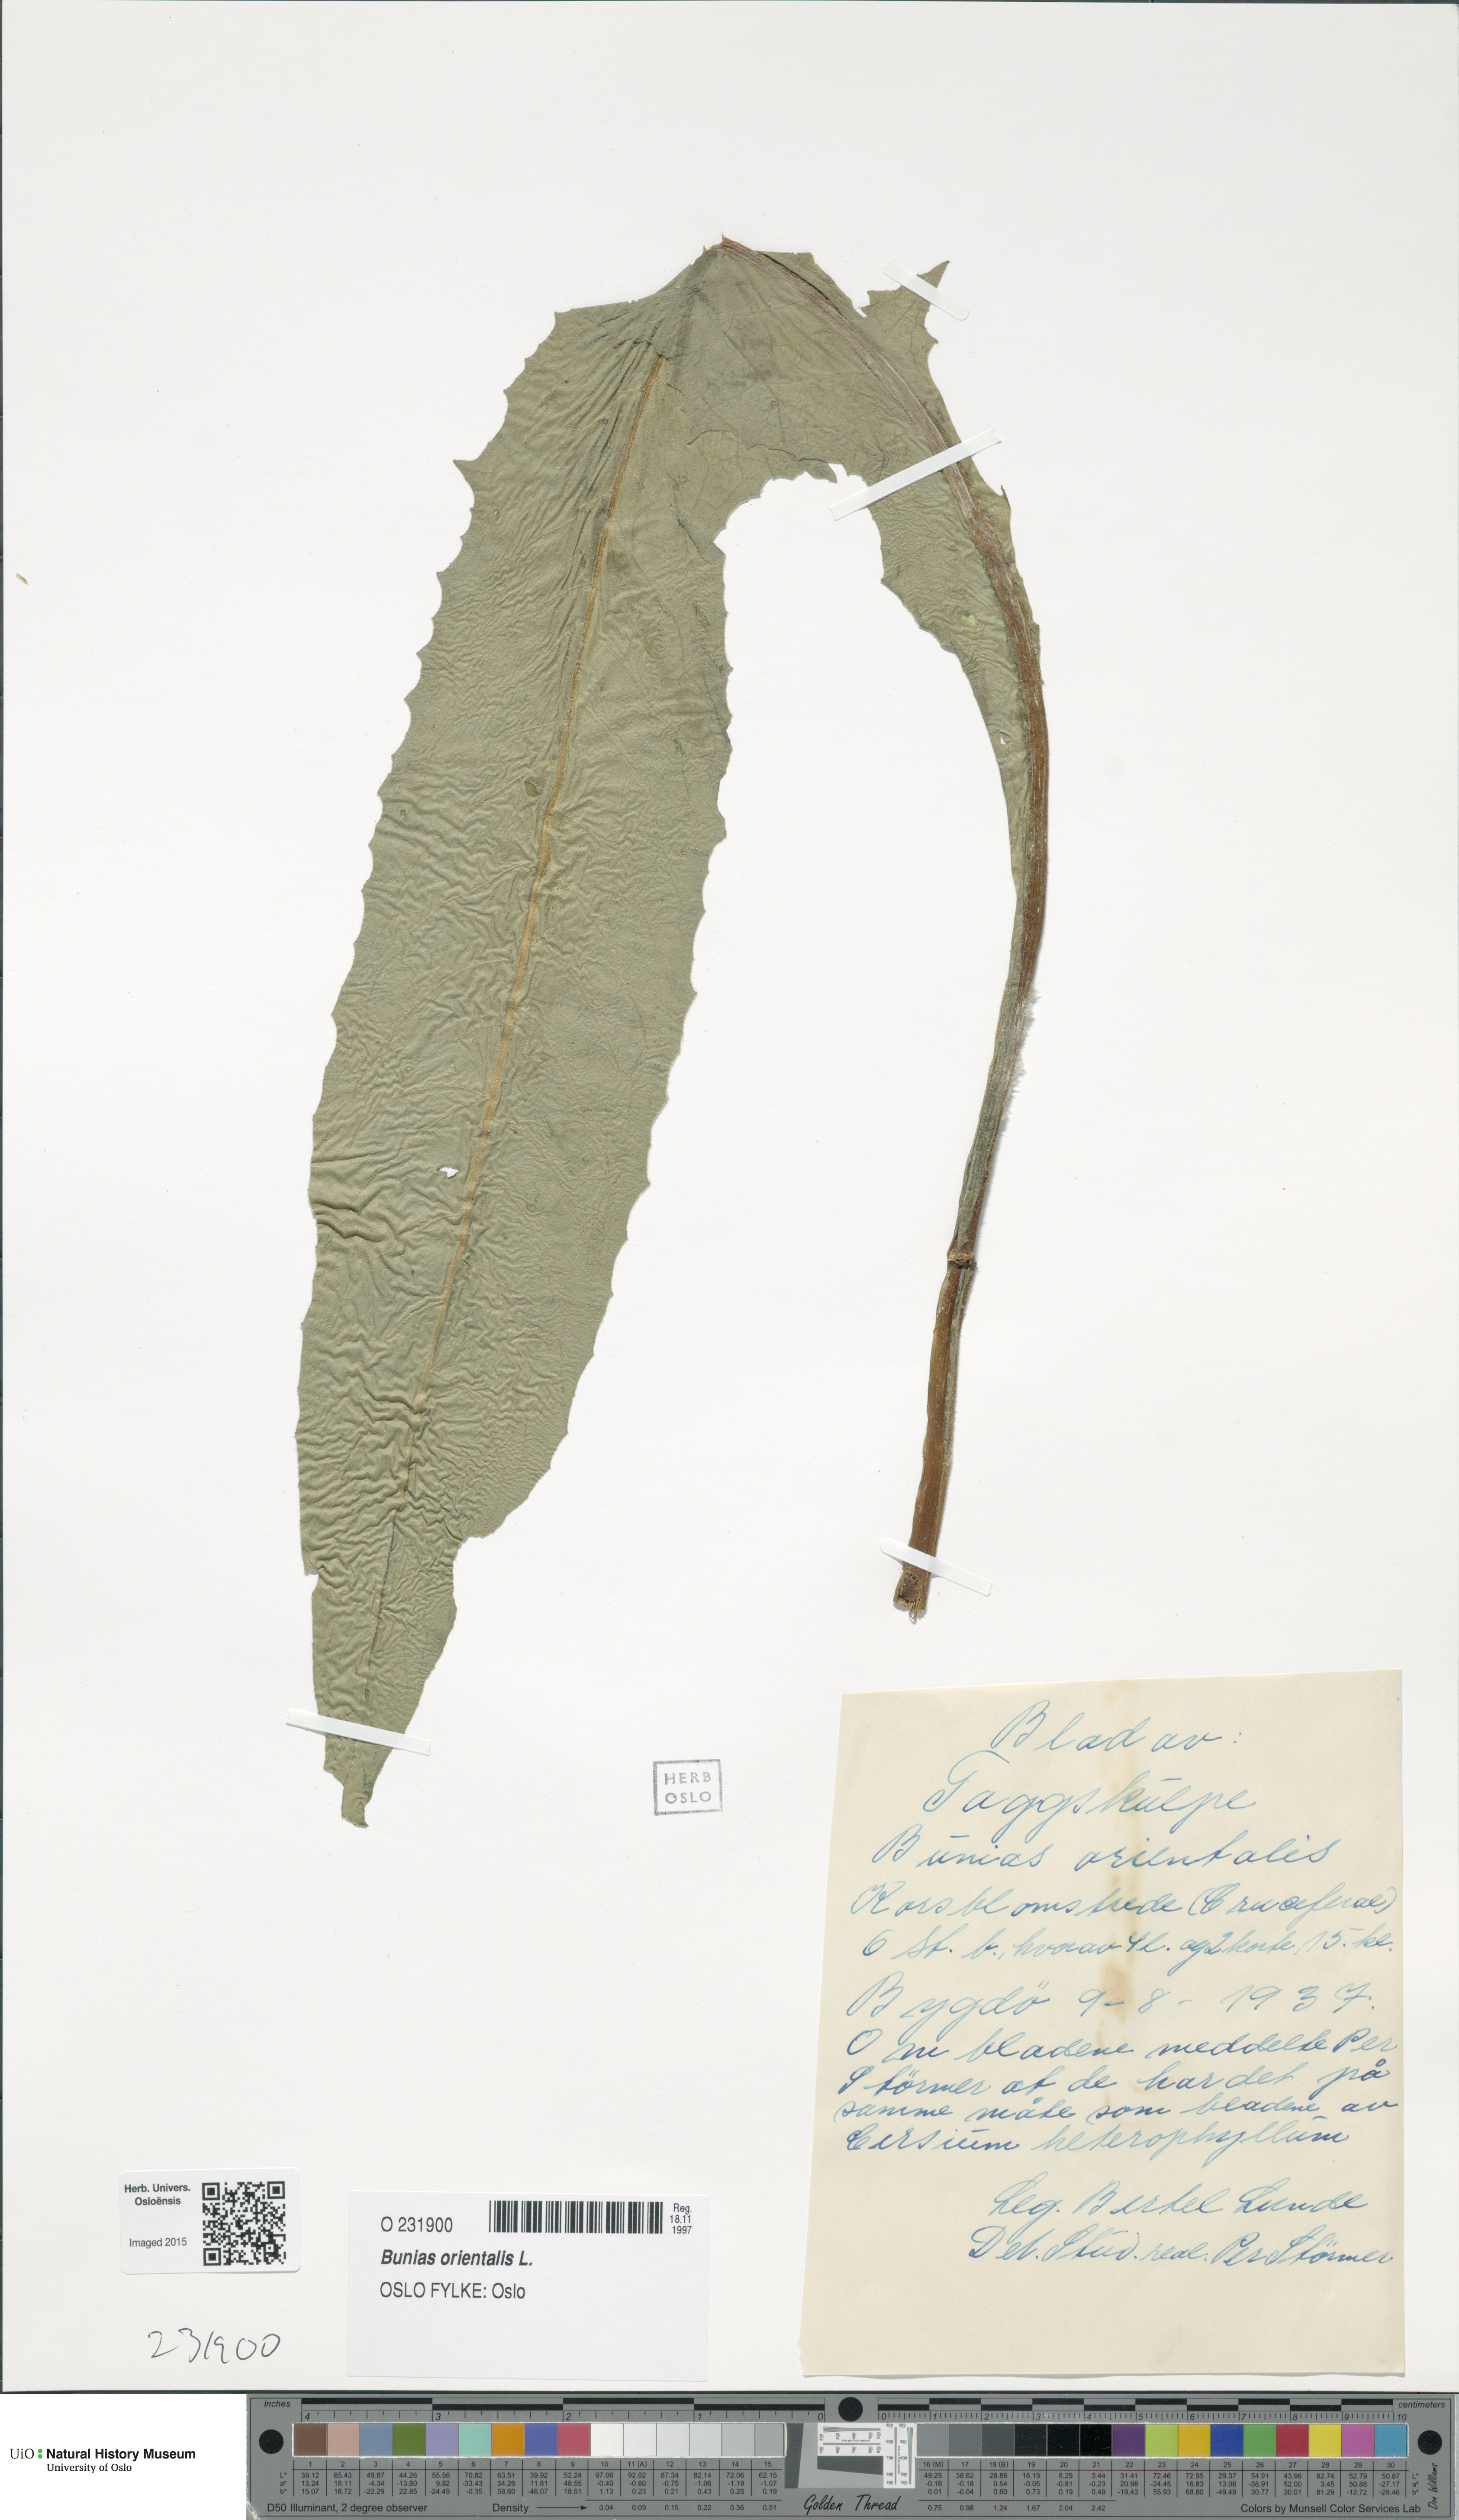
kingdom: Plantae
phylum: Tracheophyta
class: Magnoliopsida
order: Brassicales
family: Brassicaceae
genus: Bunias
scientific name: Bunias orientalis
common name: Warty-cabbage
